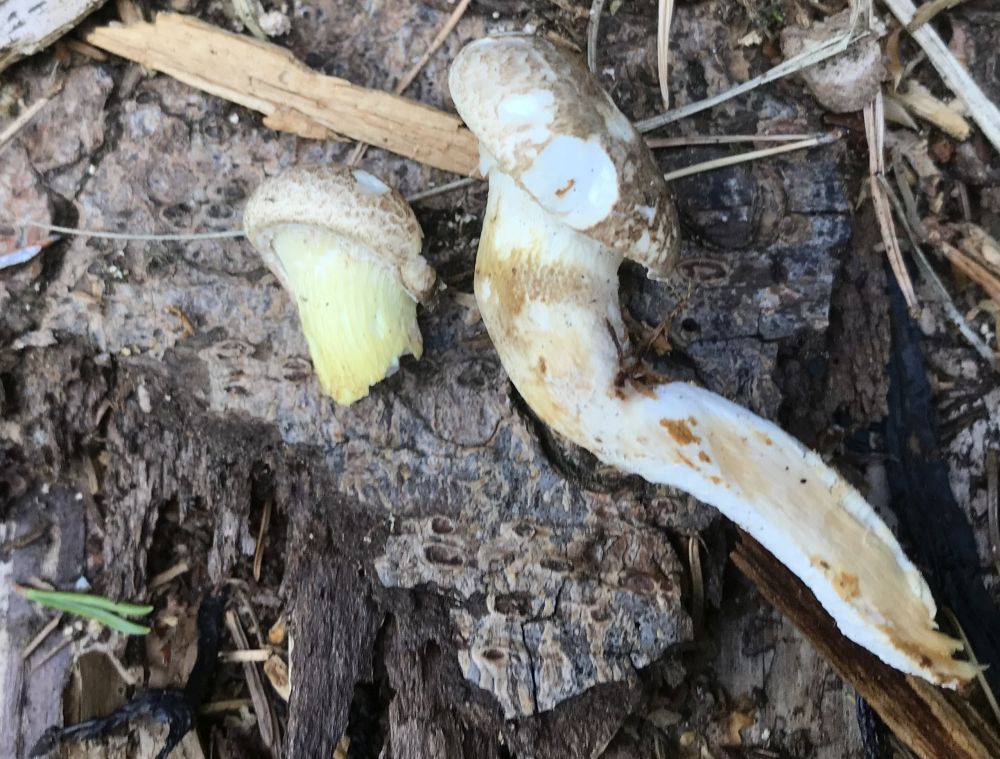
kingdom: Fungi
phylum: Basidiomycota
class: Agaricomycetes
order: Agaricales
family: Pleurotaceae
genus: Pleurotus
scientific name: Pleurotus dryinus
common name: korkagtig østershat
